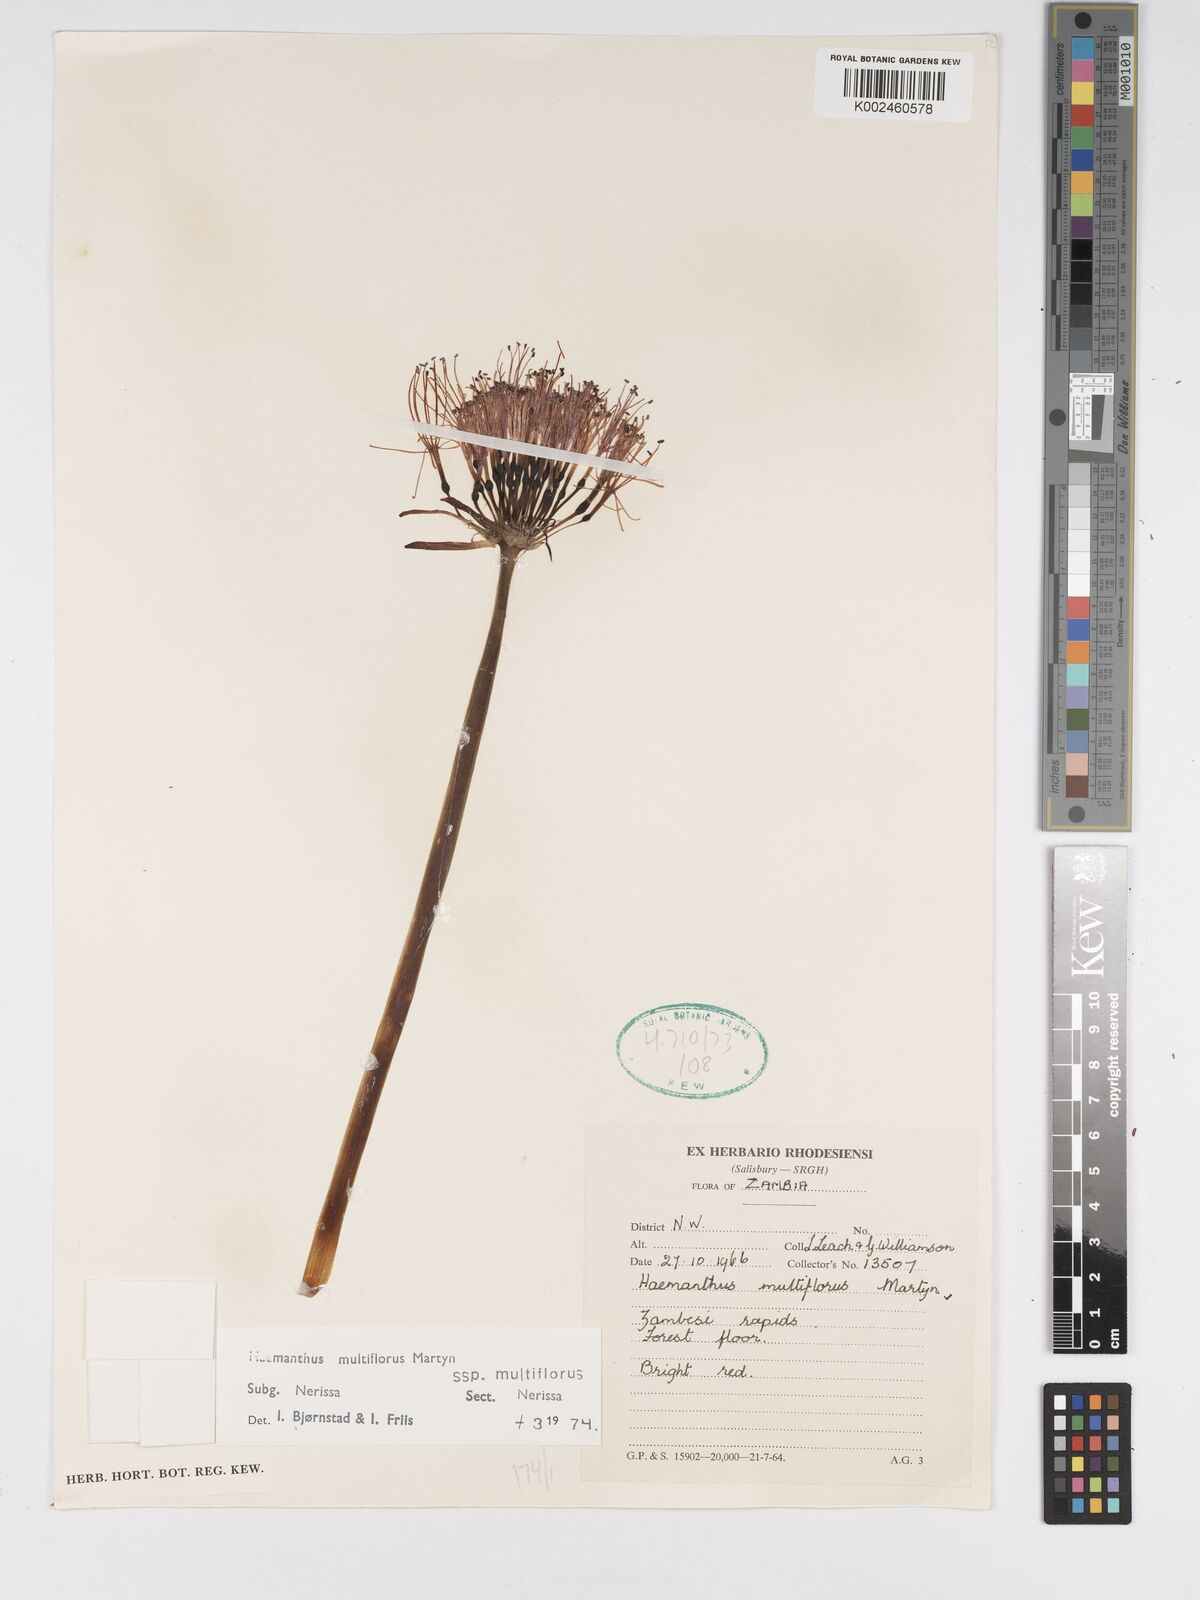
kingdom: Plantae
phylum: Tracheophyta
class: Liliopsida
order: Asparagales
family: Amaryllidaceae
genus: Scadoxus
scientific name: Scadoxus multiflorus
